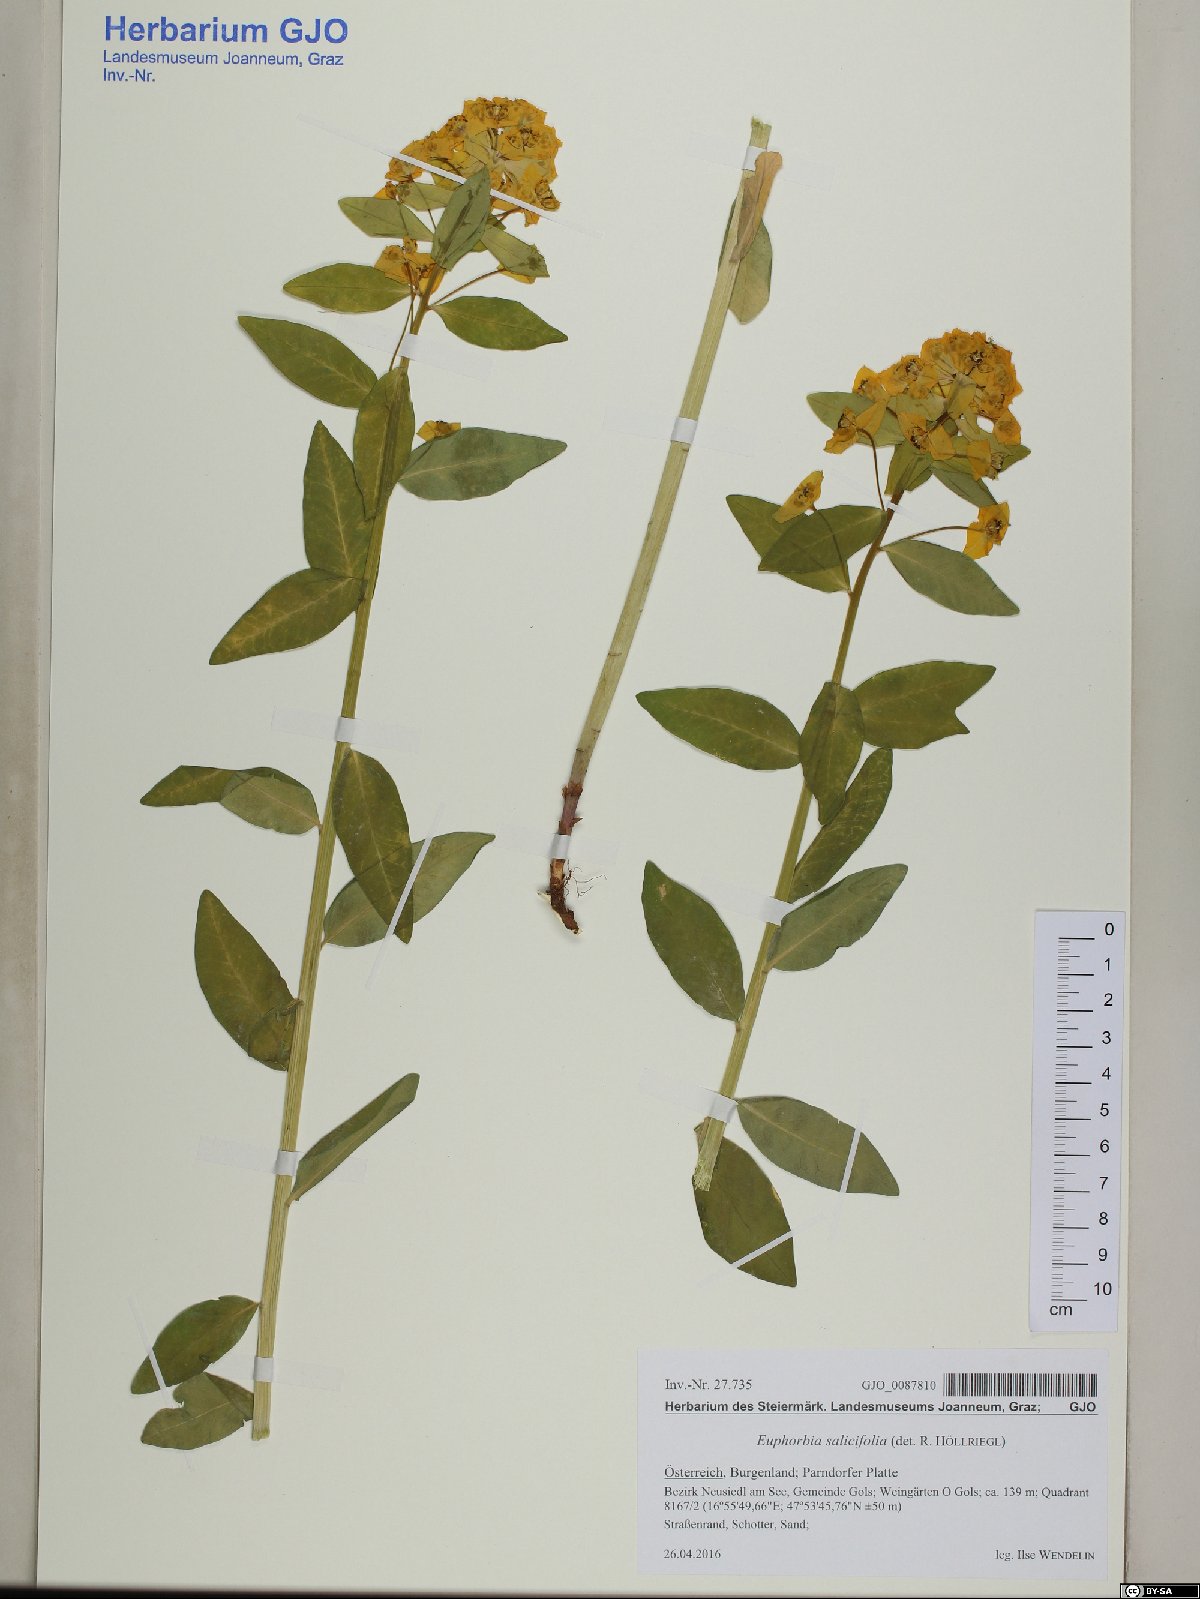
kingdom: Plantae
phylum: Tracheophyta
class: Magnoliopsida
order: Malpighiales
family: Euphorbiaceae
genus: Euphorbia
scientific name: Euphorbia salicifolia
